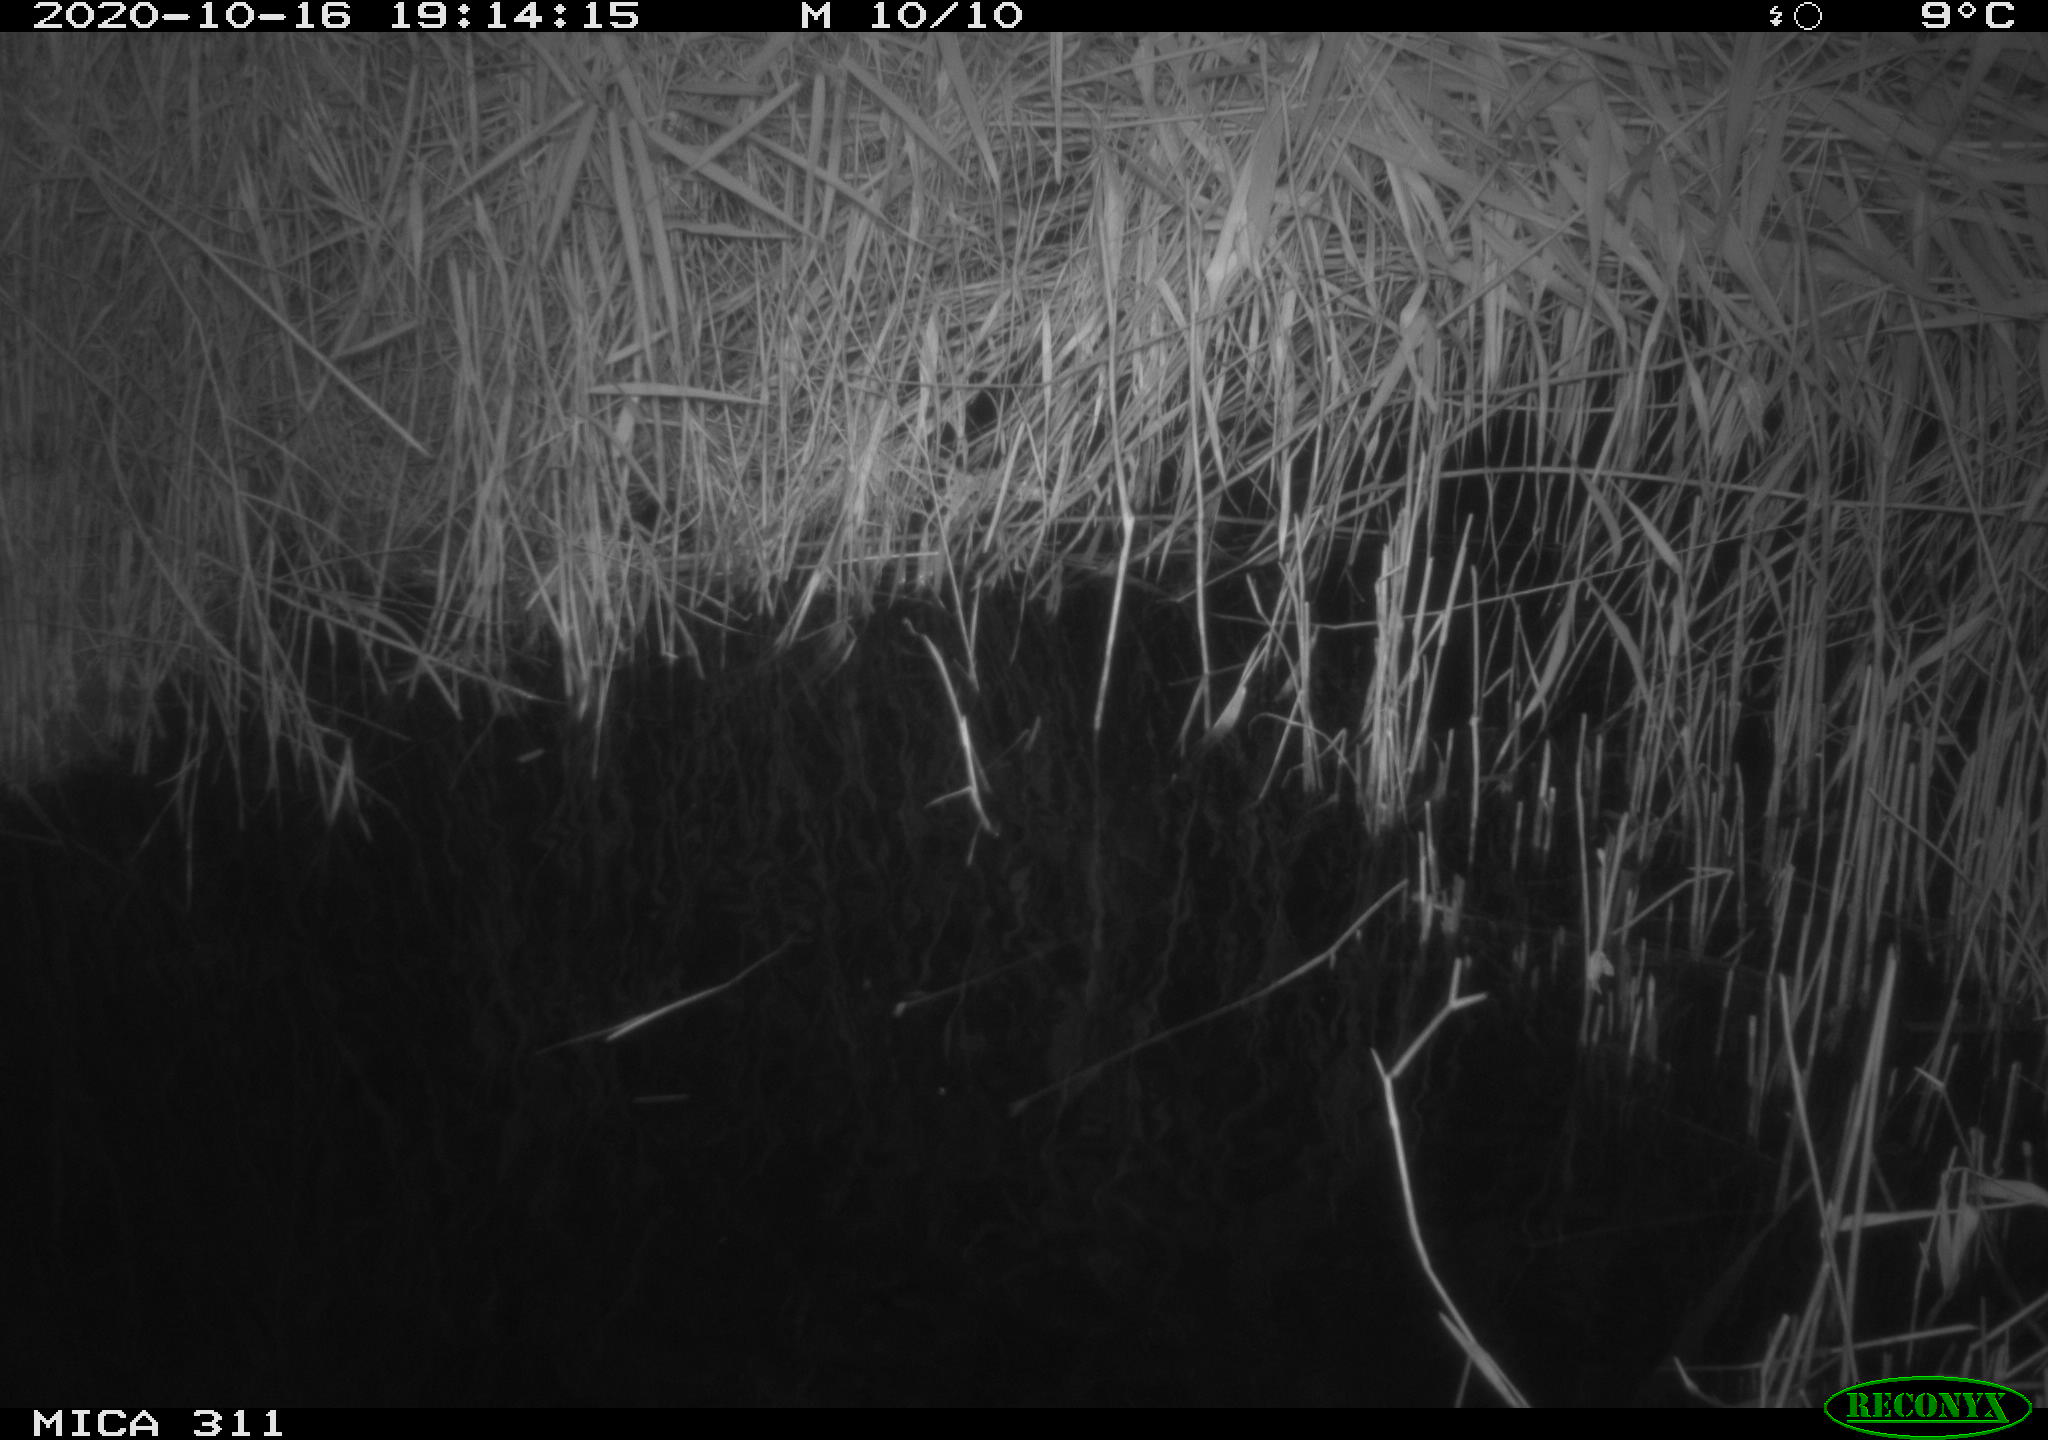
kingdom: Animalia
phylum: Chordata
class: Mammalia
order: Rodentia
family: Muridae
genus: Rattus
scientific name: Rattus norvegicus
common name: Brown rat
